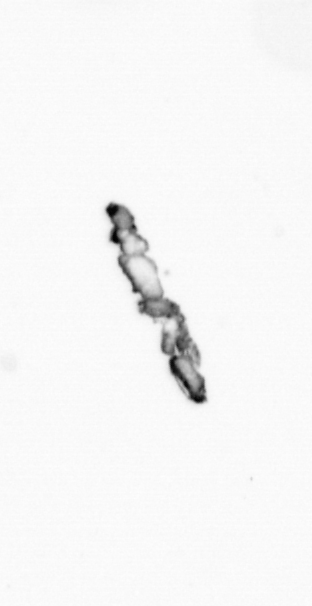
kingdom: Chromista
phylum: Ochrophyta
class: Bacillariophyceae
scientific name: Bacillariophyceae
